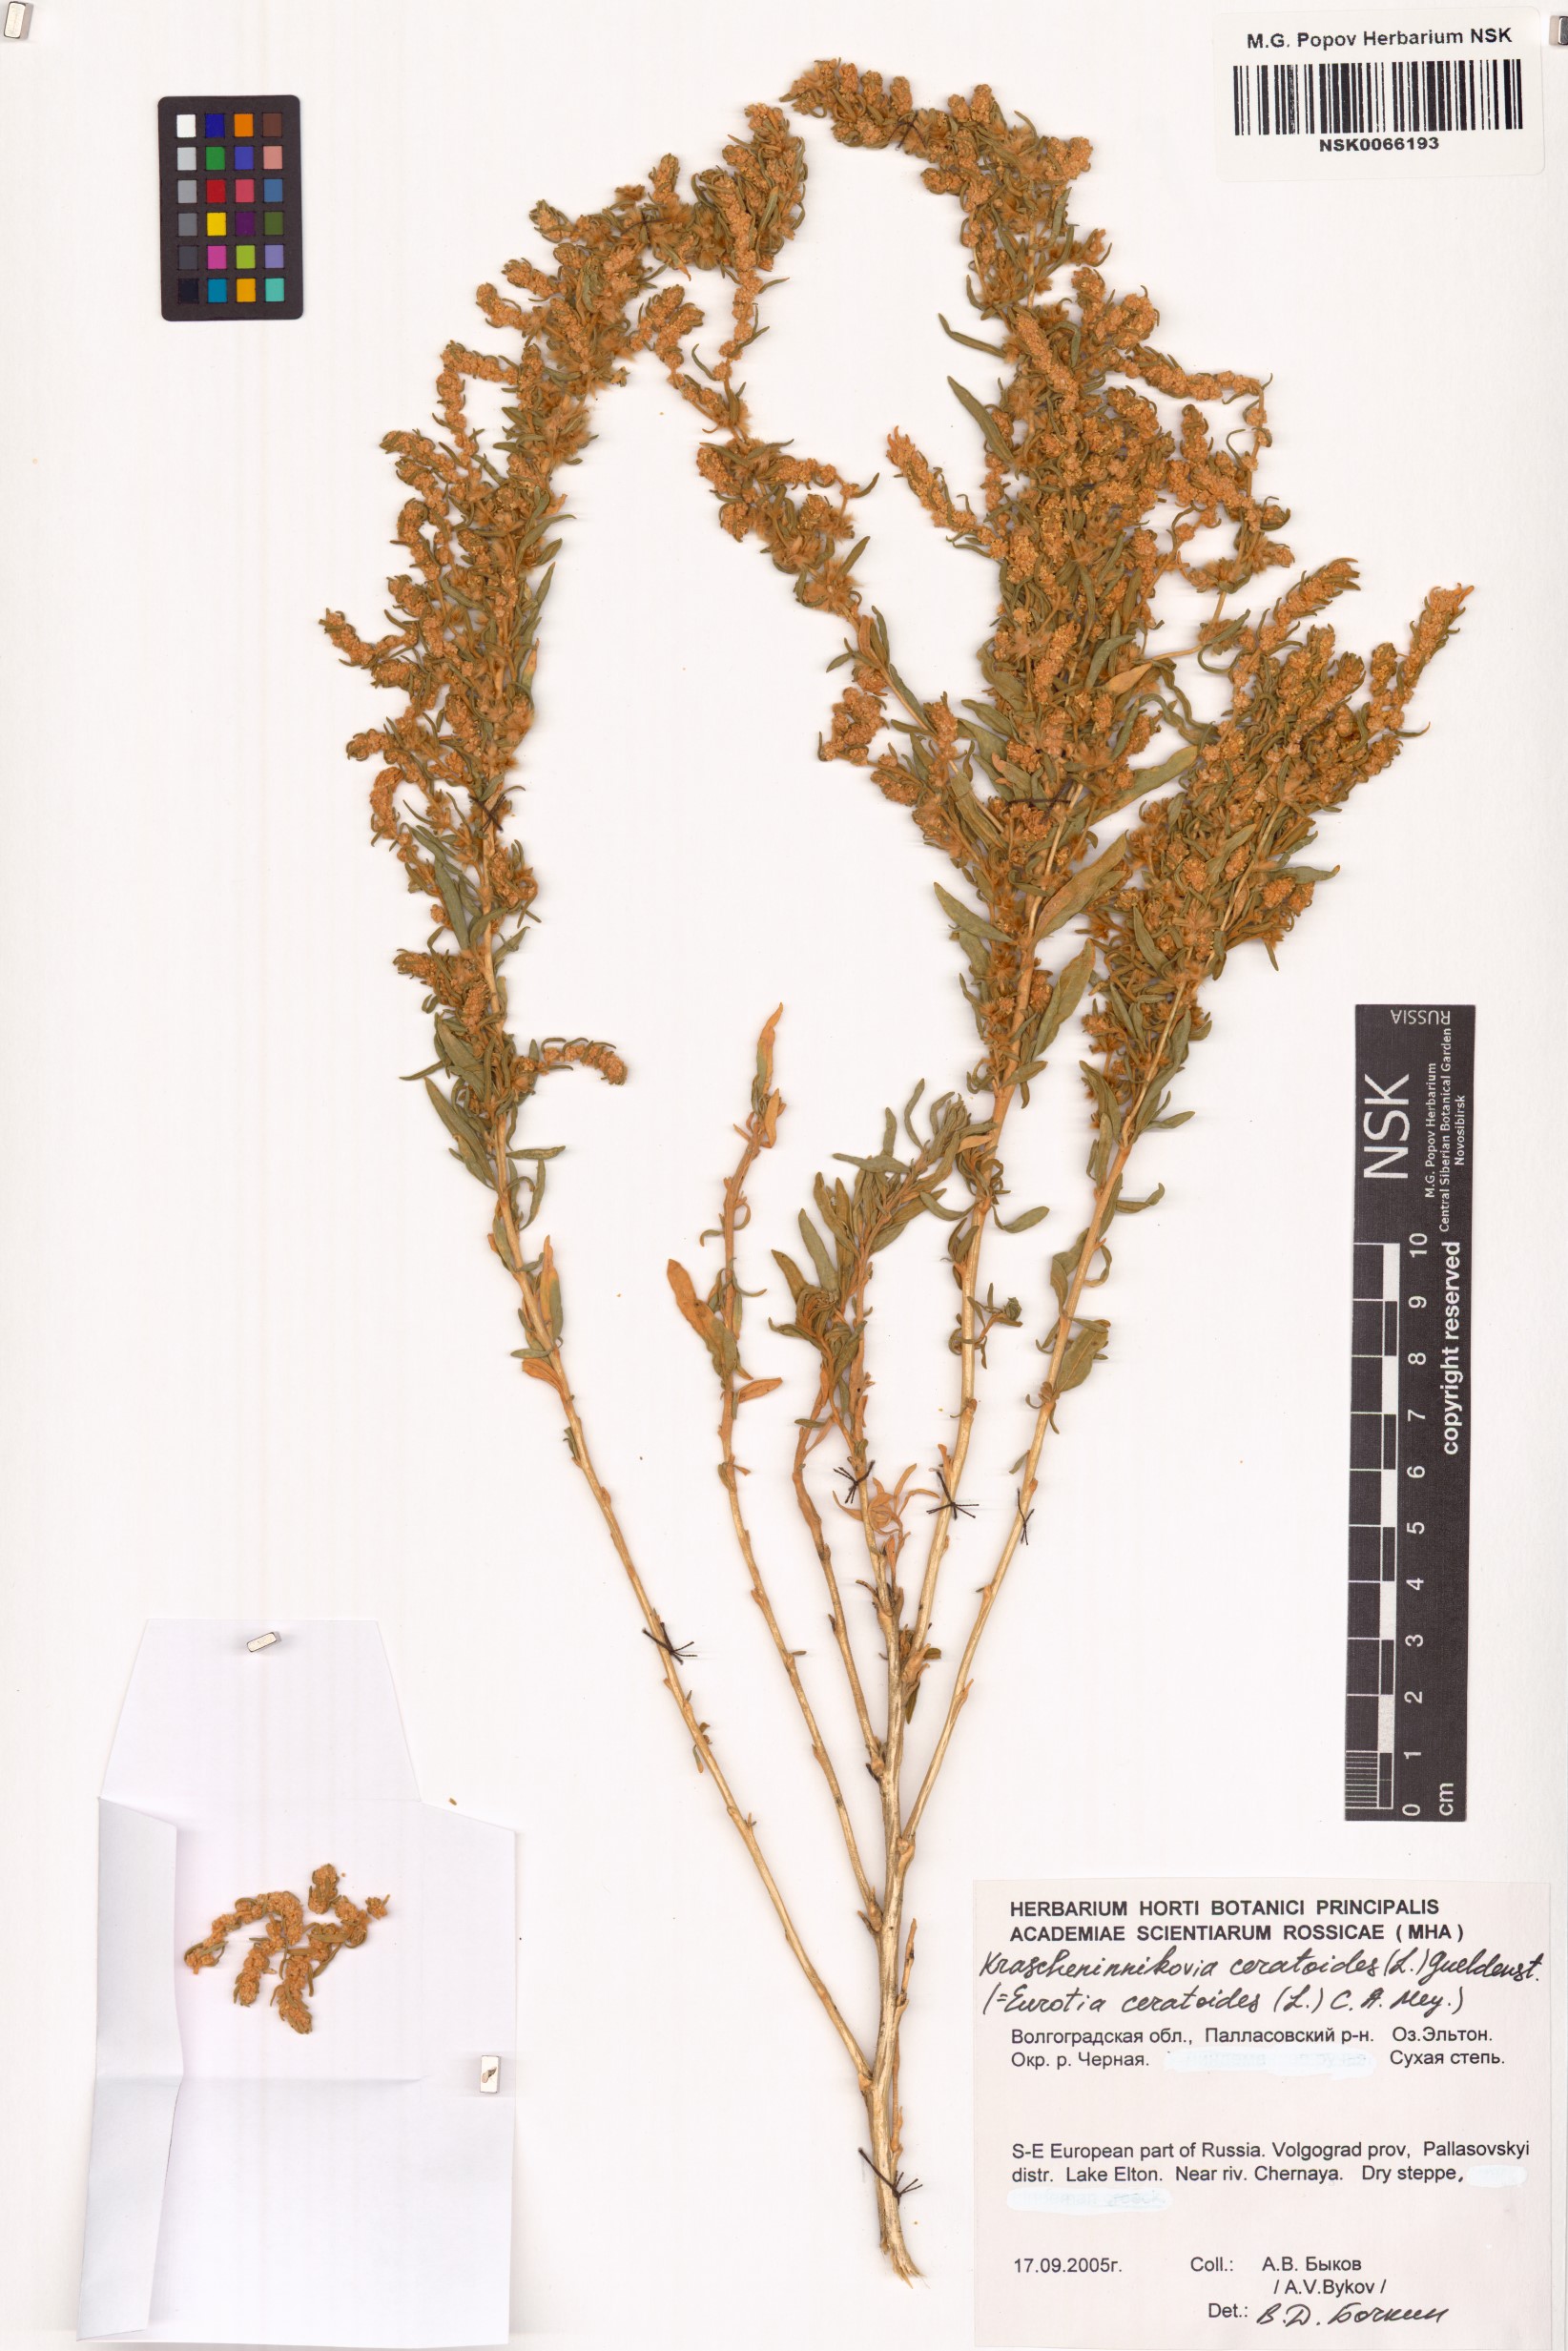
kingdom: Plantae
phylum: Tracheophyta
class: Magnoliopsida
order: Caryophyllales
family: Amaranthaceae
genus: Krascheninnikovia
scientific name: Krascheninnikovia ceratoides
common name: Pamirian winterfat
